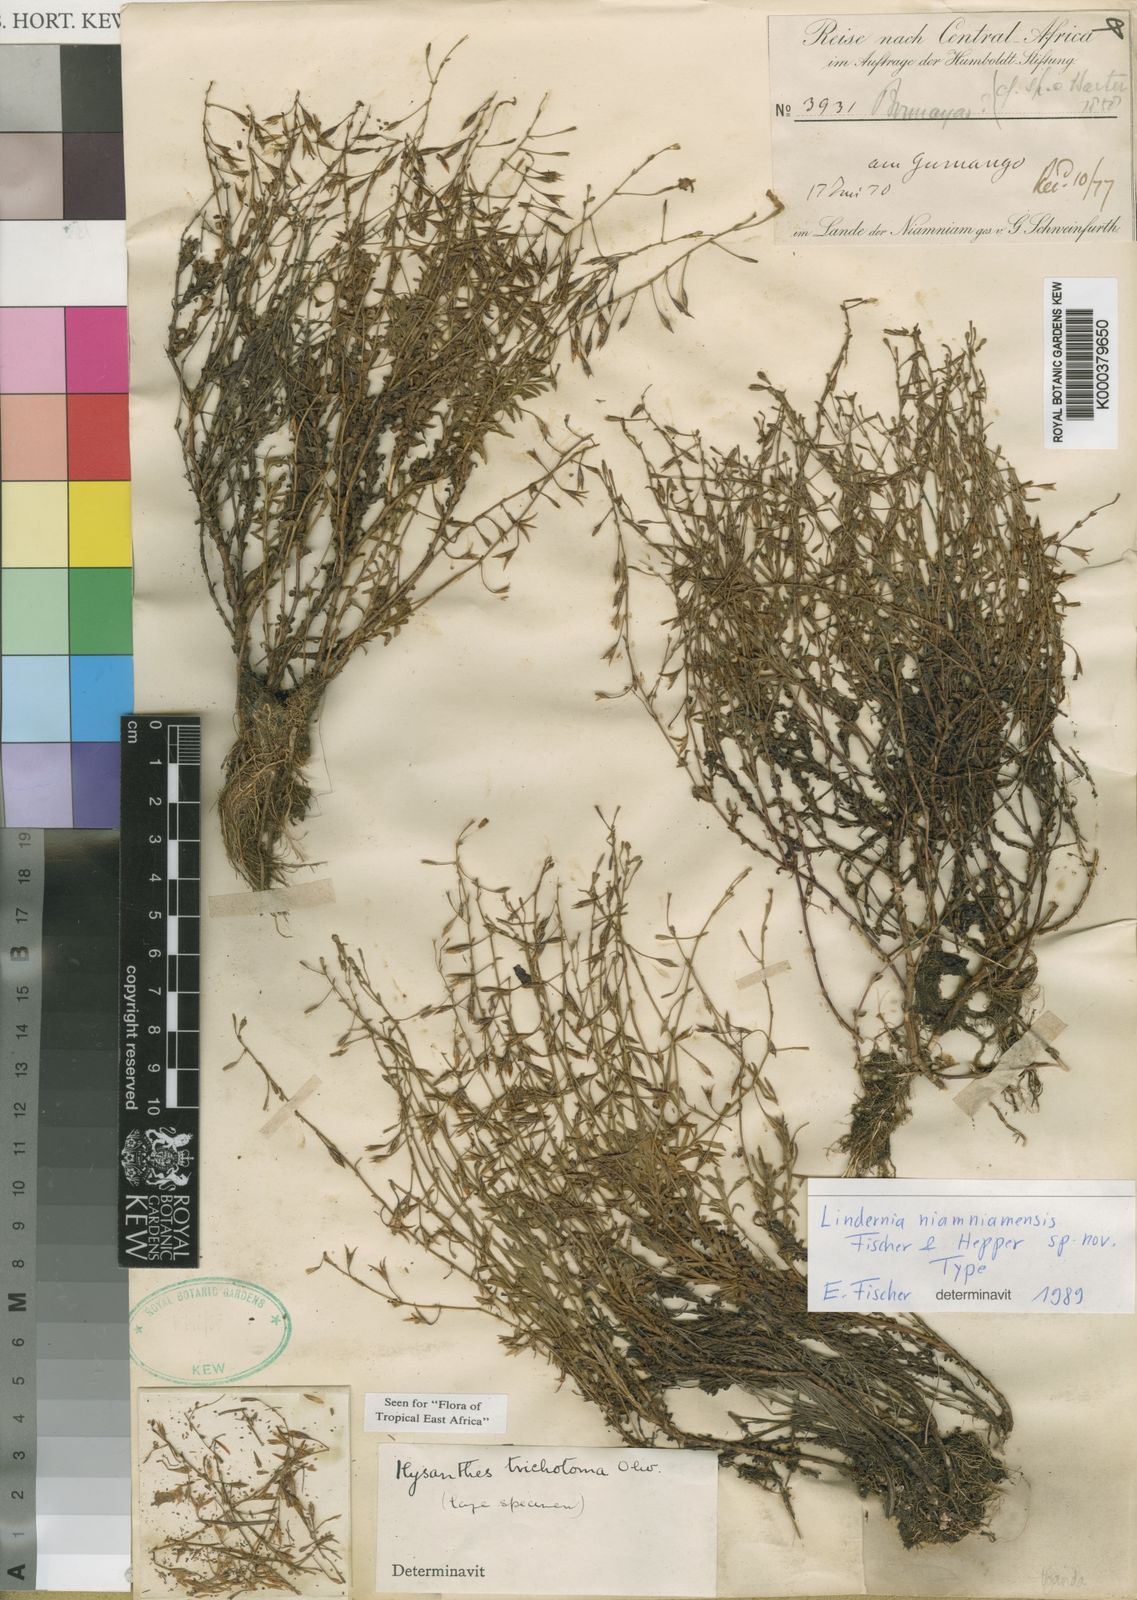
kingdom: Plantae
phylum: Tracheophyta
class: Magnoliopsida
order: Lamiales
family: Linderniaceae
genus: Craterostigma
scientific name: Craterostigma niamniamense
